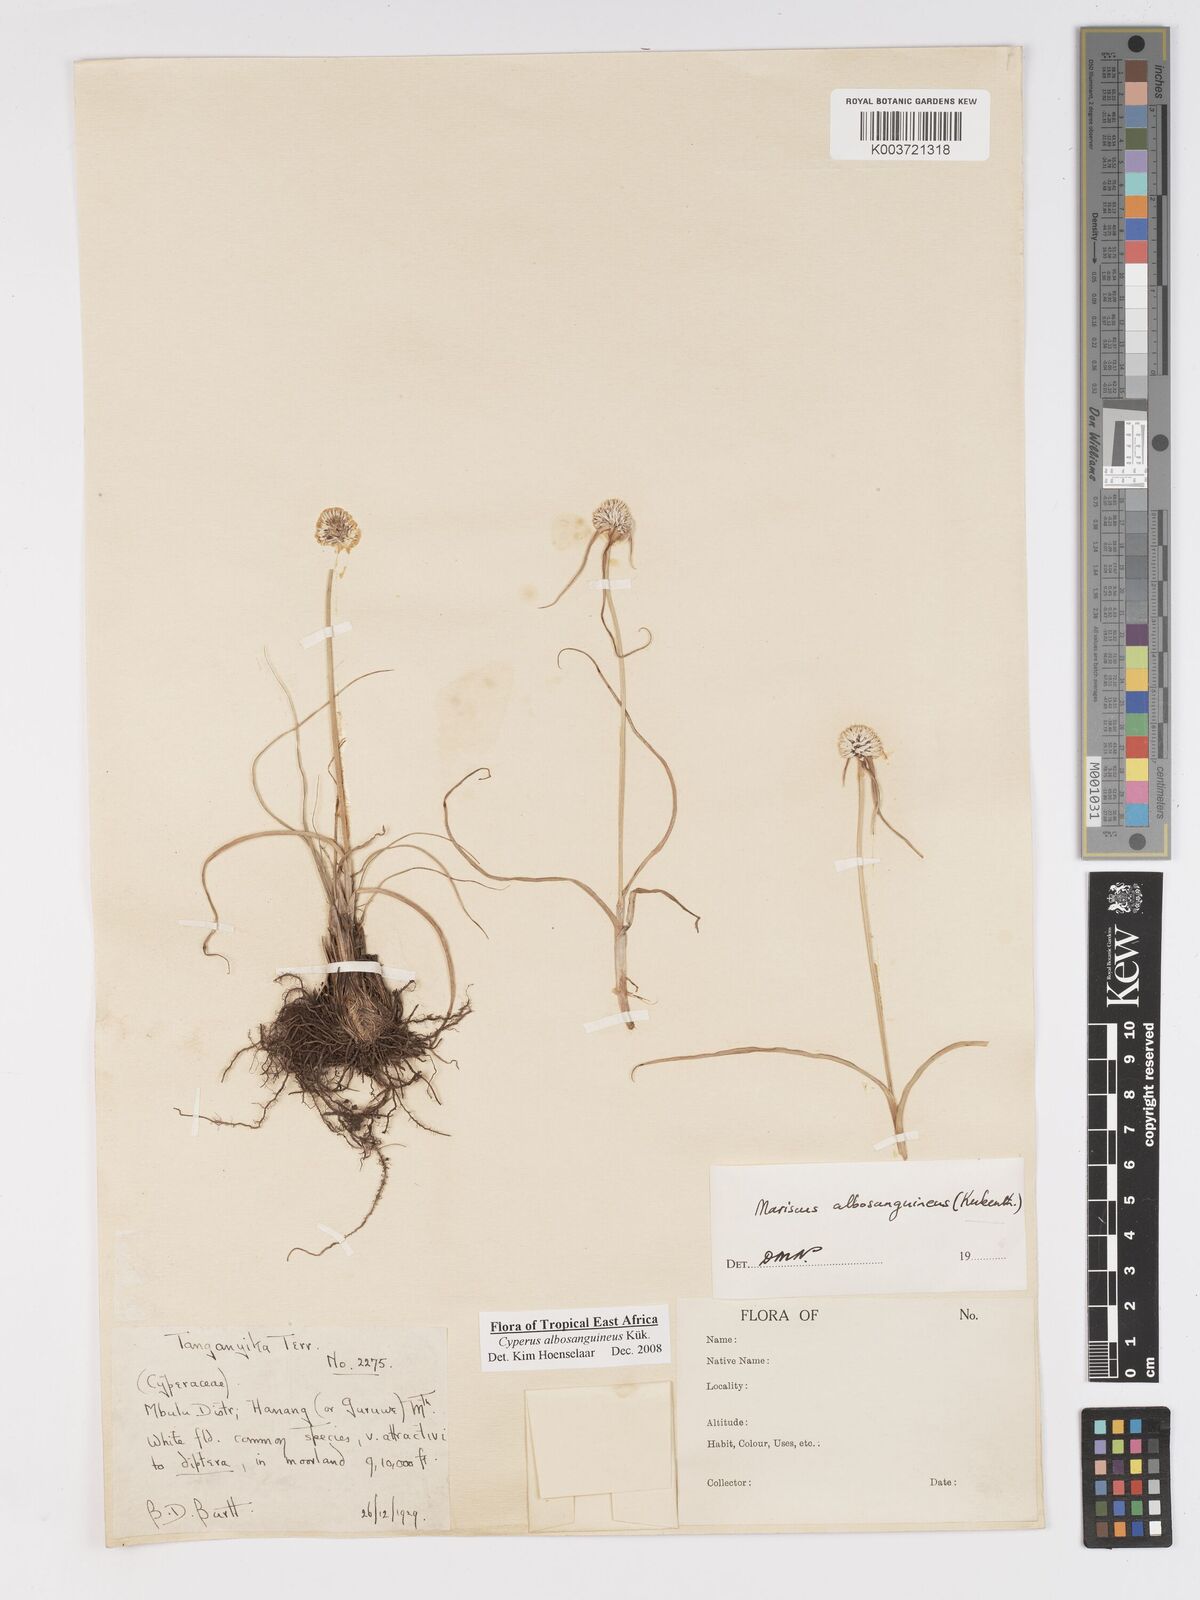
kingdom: Plantae
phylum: Tracheophyta
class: Liliopsida
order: Poales
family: Cyperaceae
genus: Cyperus
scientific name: Cyperus albosanguineus
